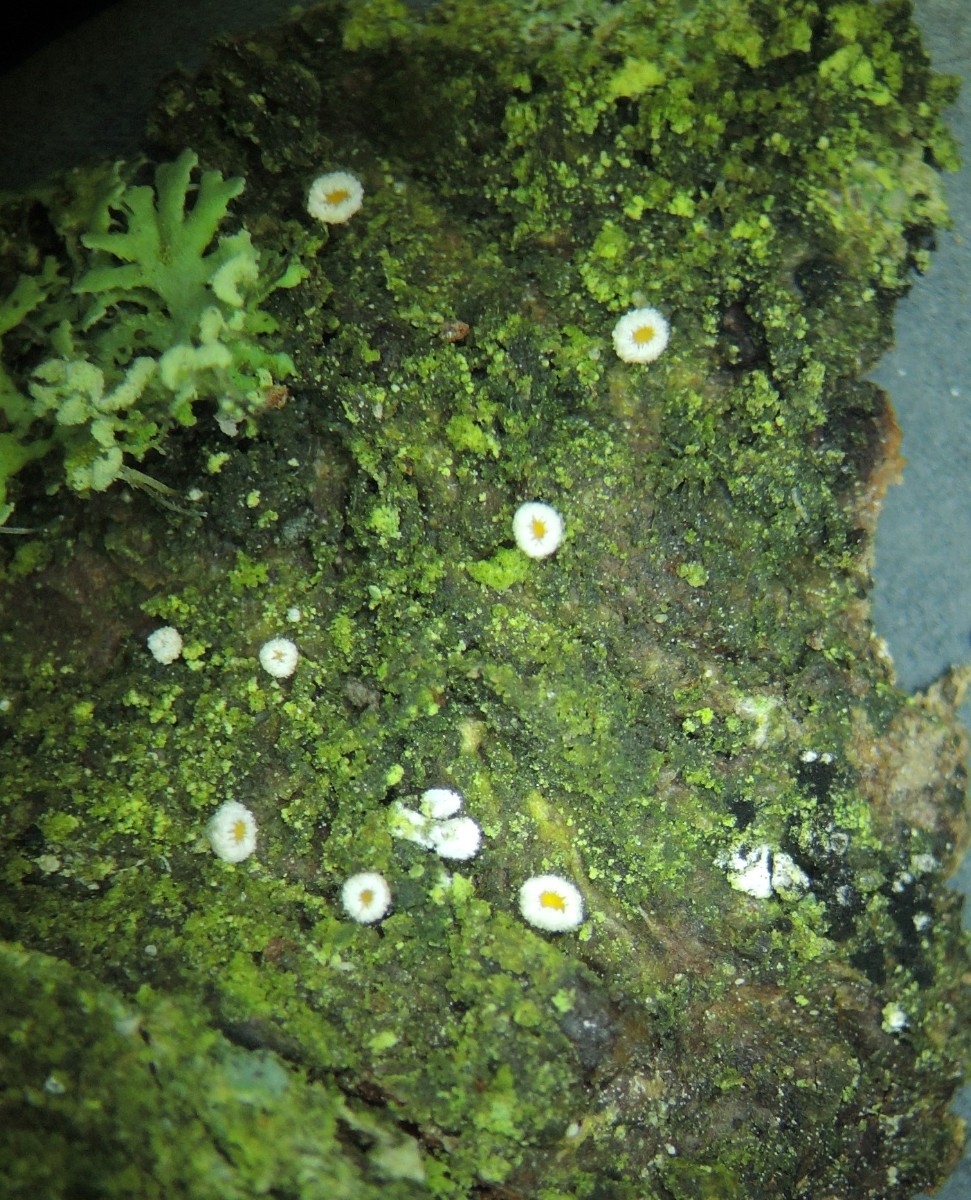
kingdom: Fungi
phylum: Ascomycota
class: Leotiomycetes
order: Helotiales
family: Lachnaceae
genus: Lachnellula
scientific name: Lachnellula pseudofarinacea
